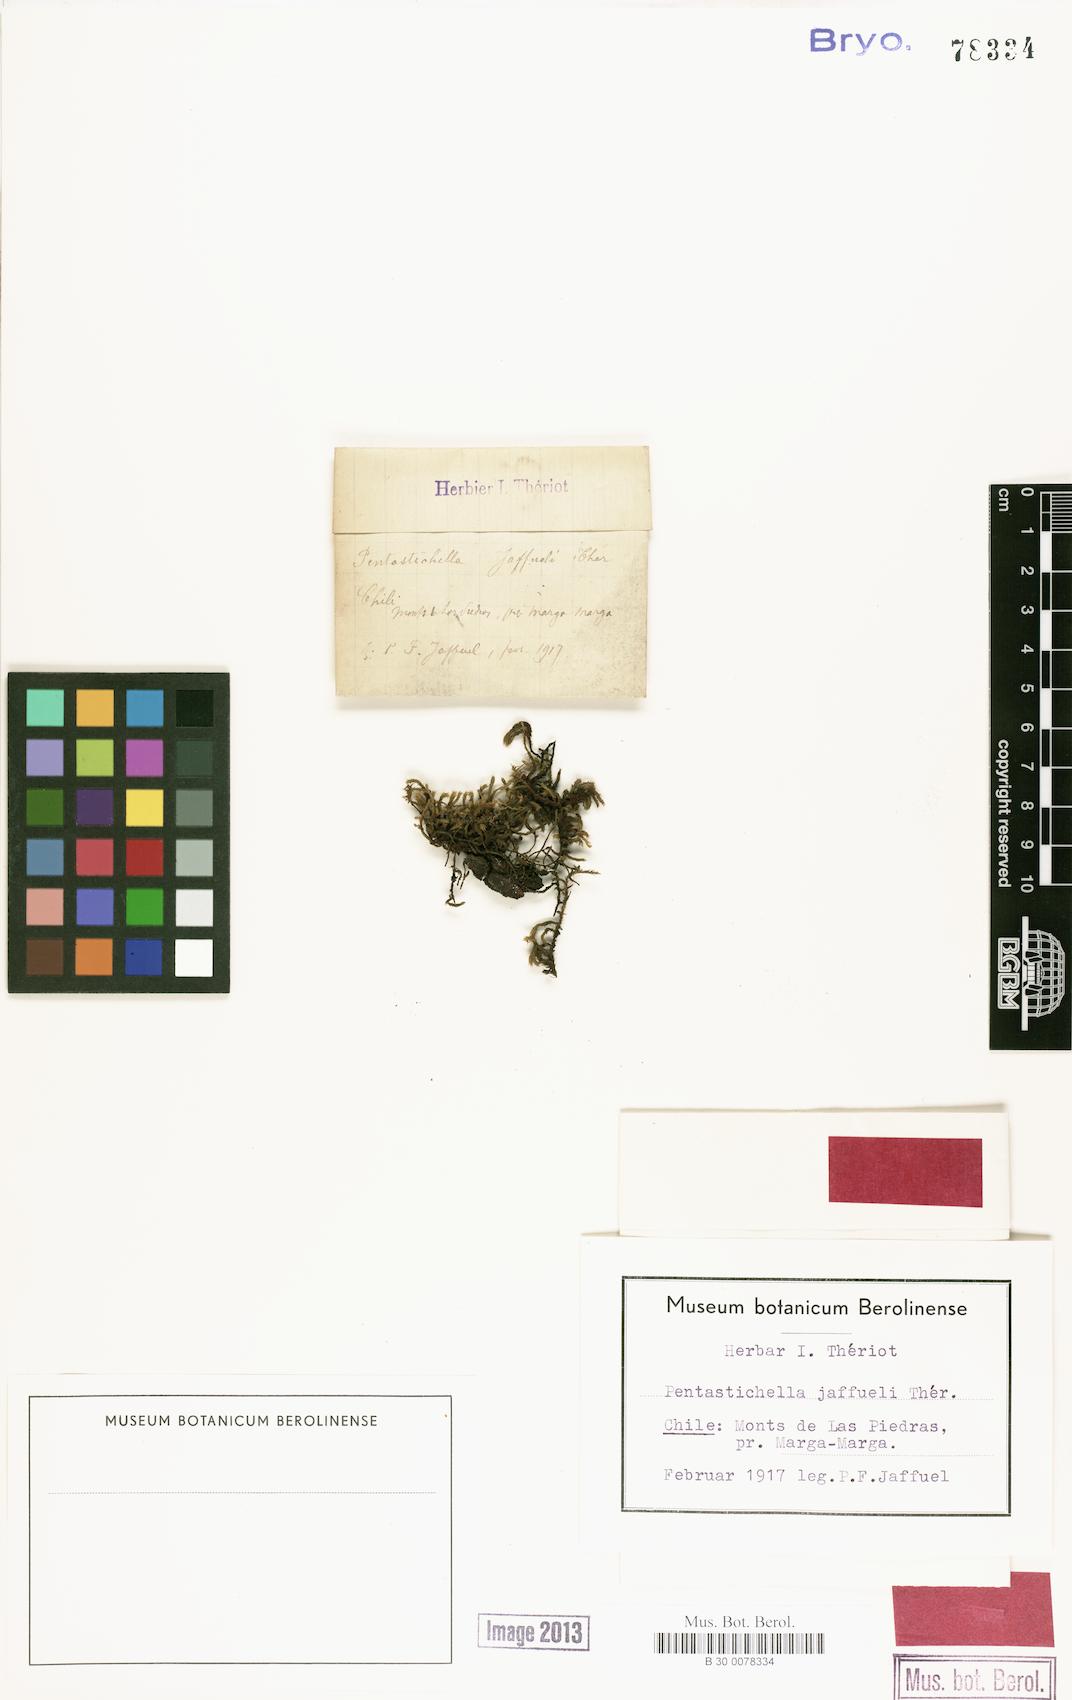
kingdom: Plantae
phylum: Bryophyta
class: Bryopsida
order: Orthotrichales
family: Orthotrichaceae
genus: Pentastichella
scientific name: Pentastichella pentasticha
